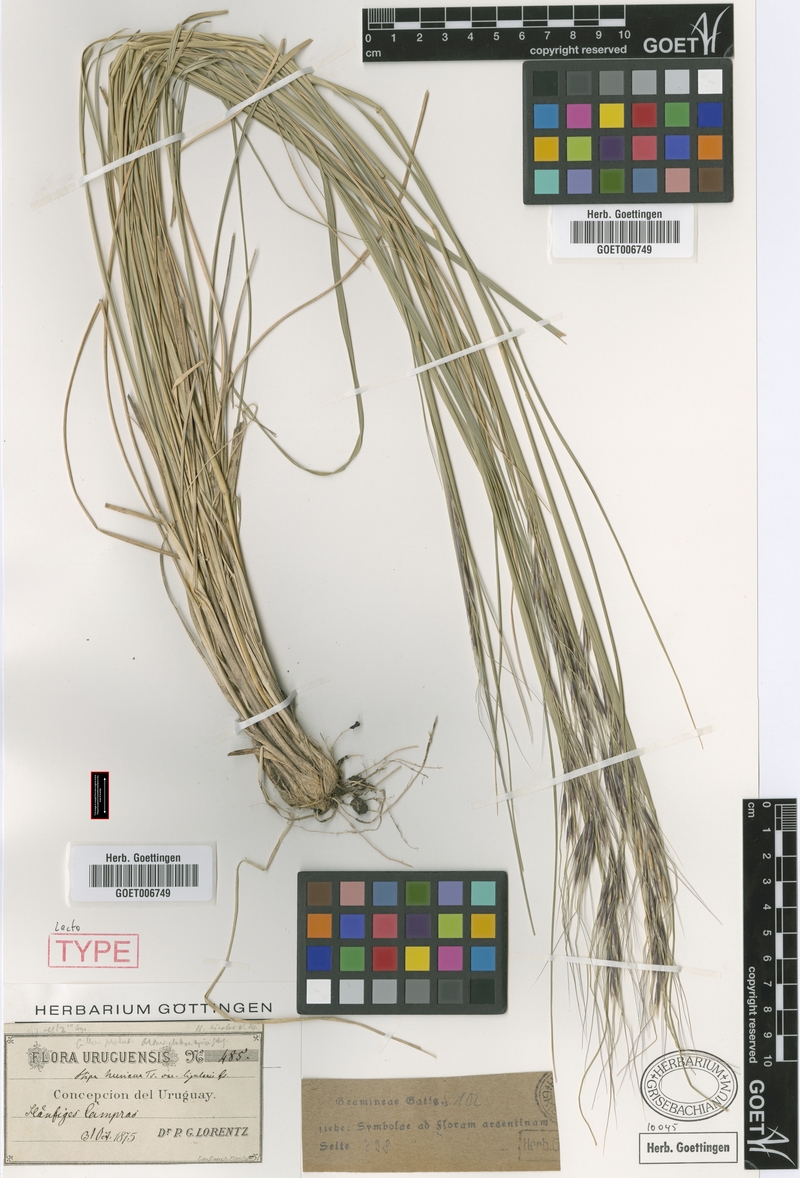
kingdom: Plantae
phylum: Tracheophyta
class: Liliopsida
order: Poales
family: Poaceae
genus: Nassella
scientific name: Nassella neesiana
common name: American needle-grass
